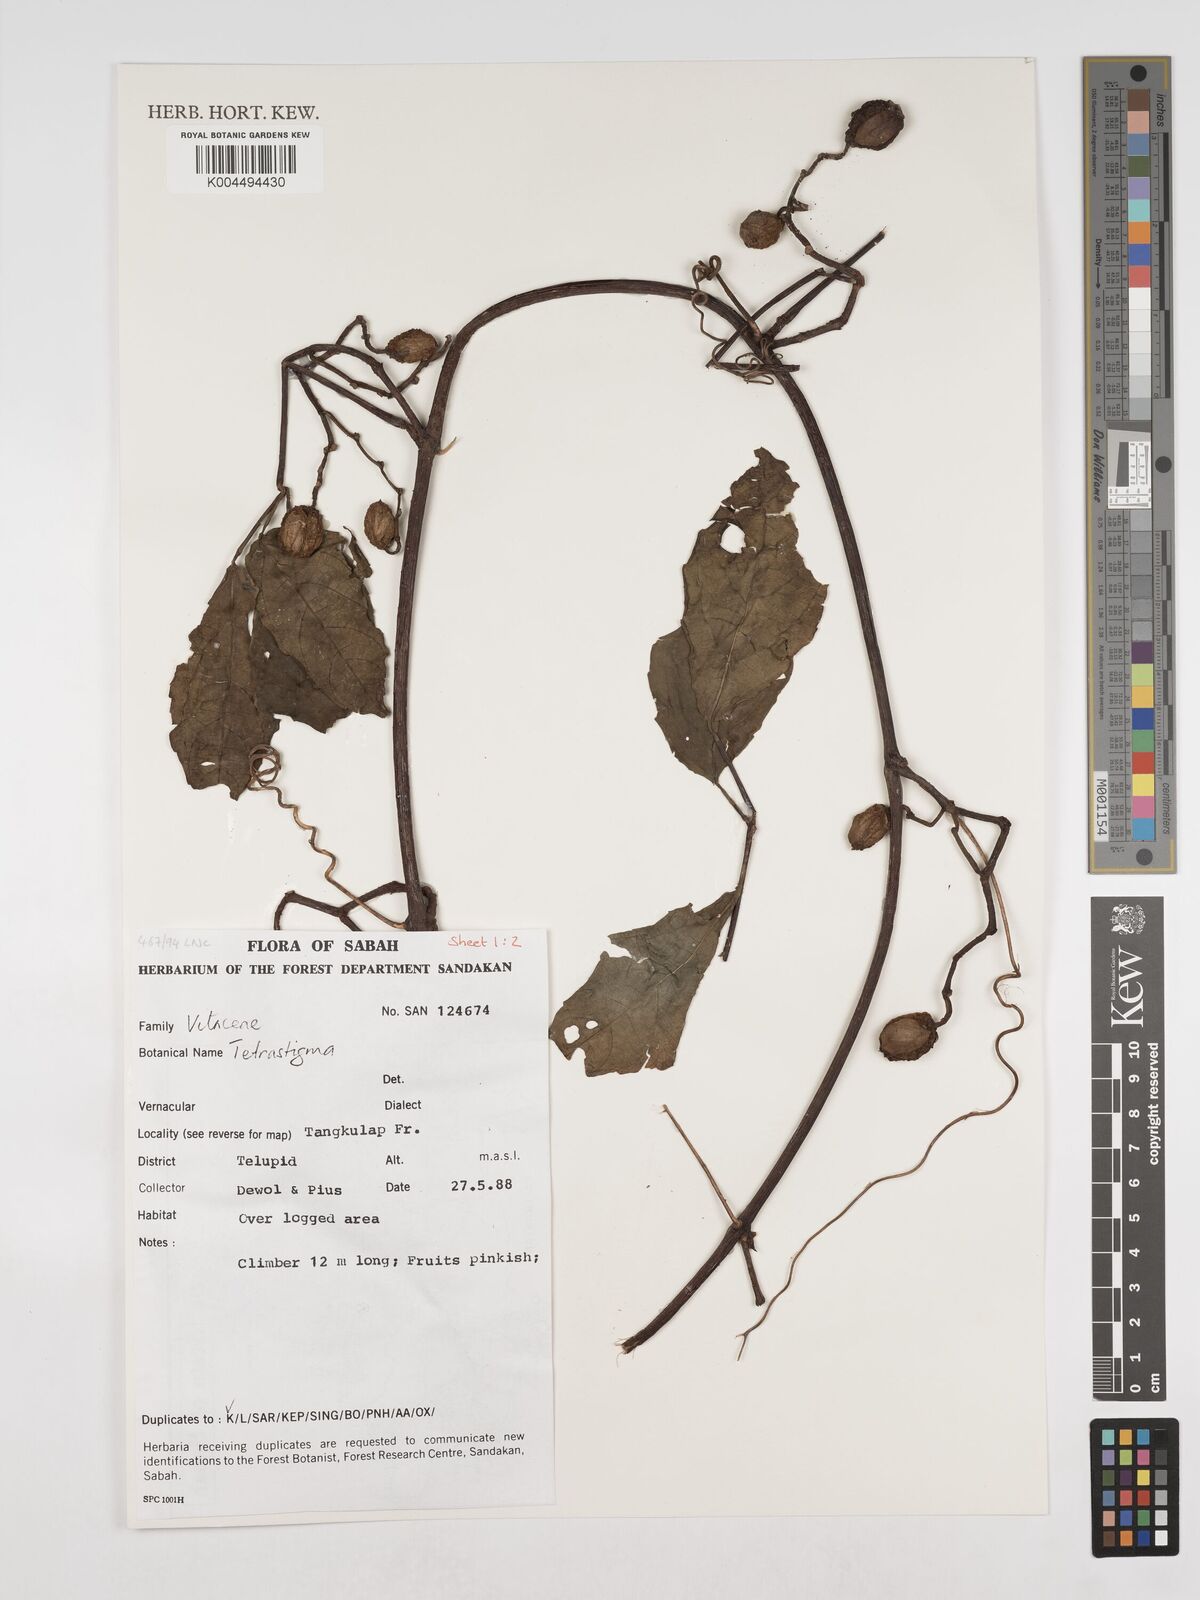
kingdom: Plantae
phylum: Tracheophyta
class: Magnoliopsida
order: Vitales
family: Vitaceae
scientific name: Vitaceae
